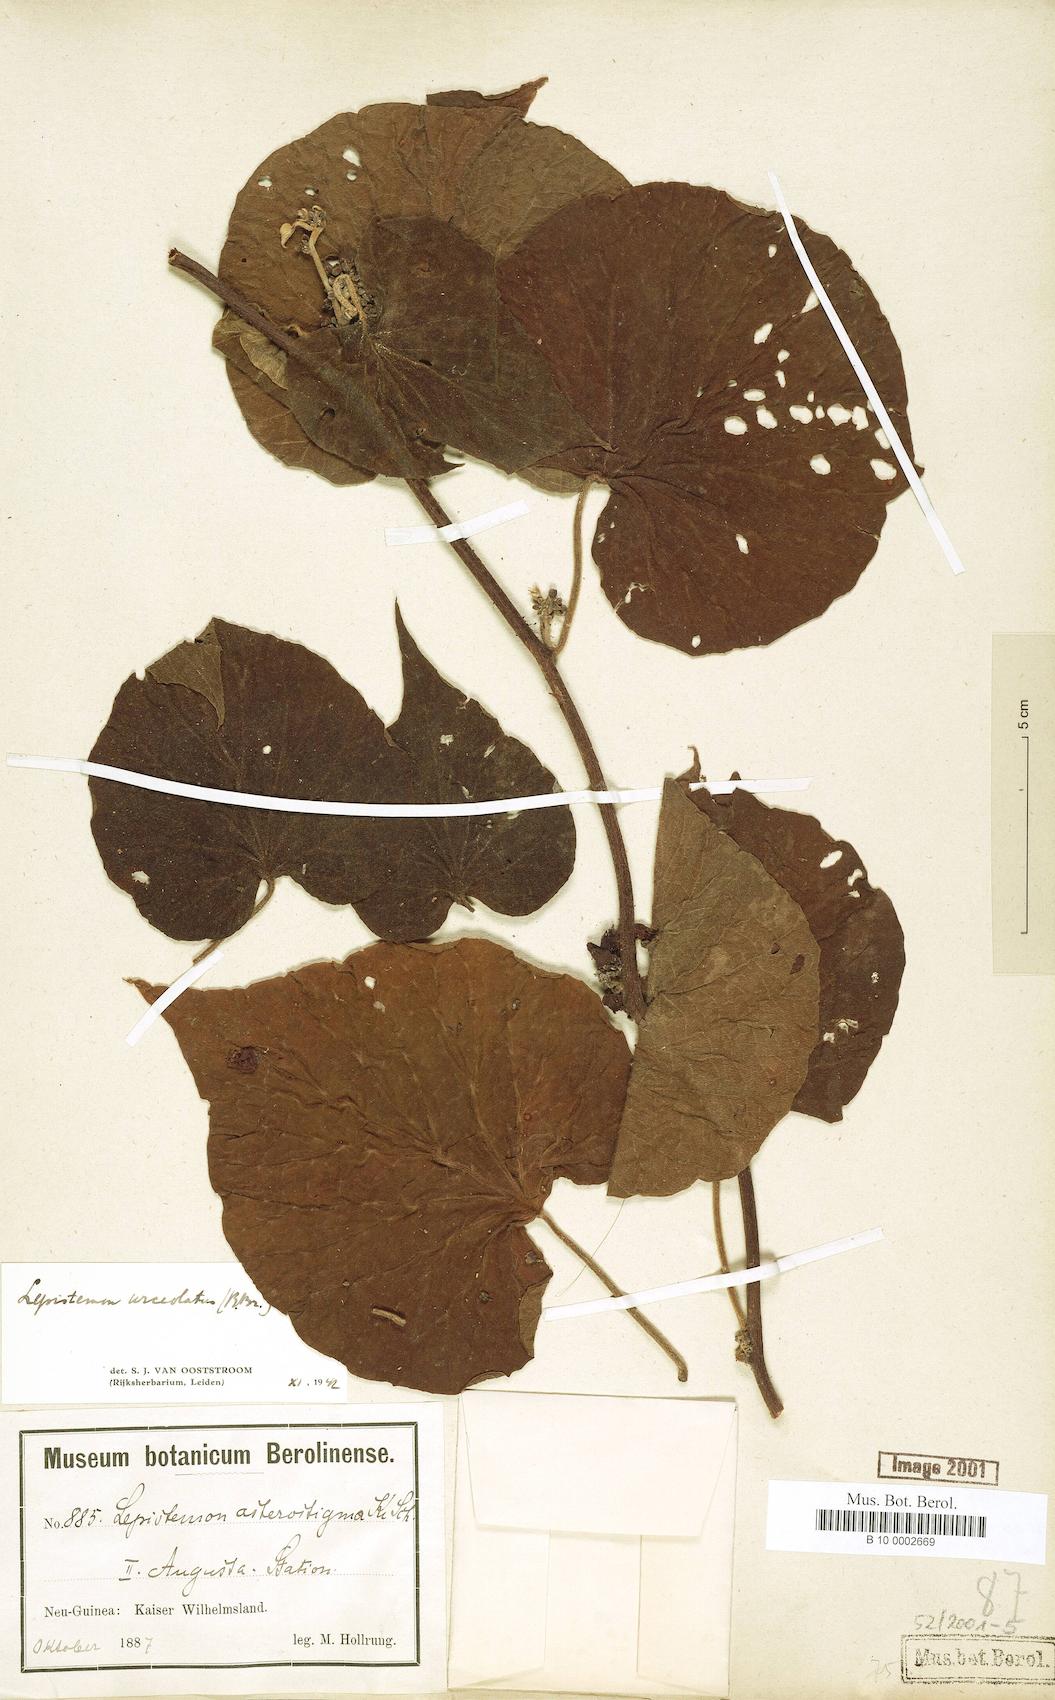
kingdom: Plantae
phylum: Tracheophyta
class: Magnoliopsida
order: Solanales
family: Convolvulaceae
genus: Lepistemon
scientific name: Lepistemon urceolatus
